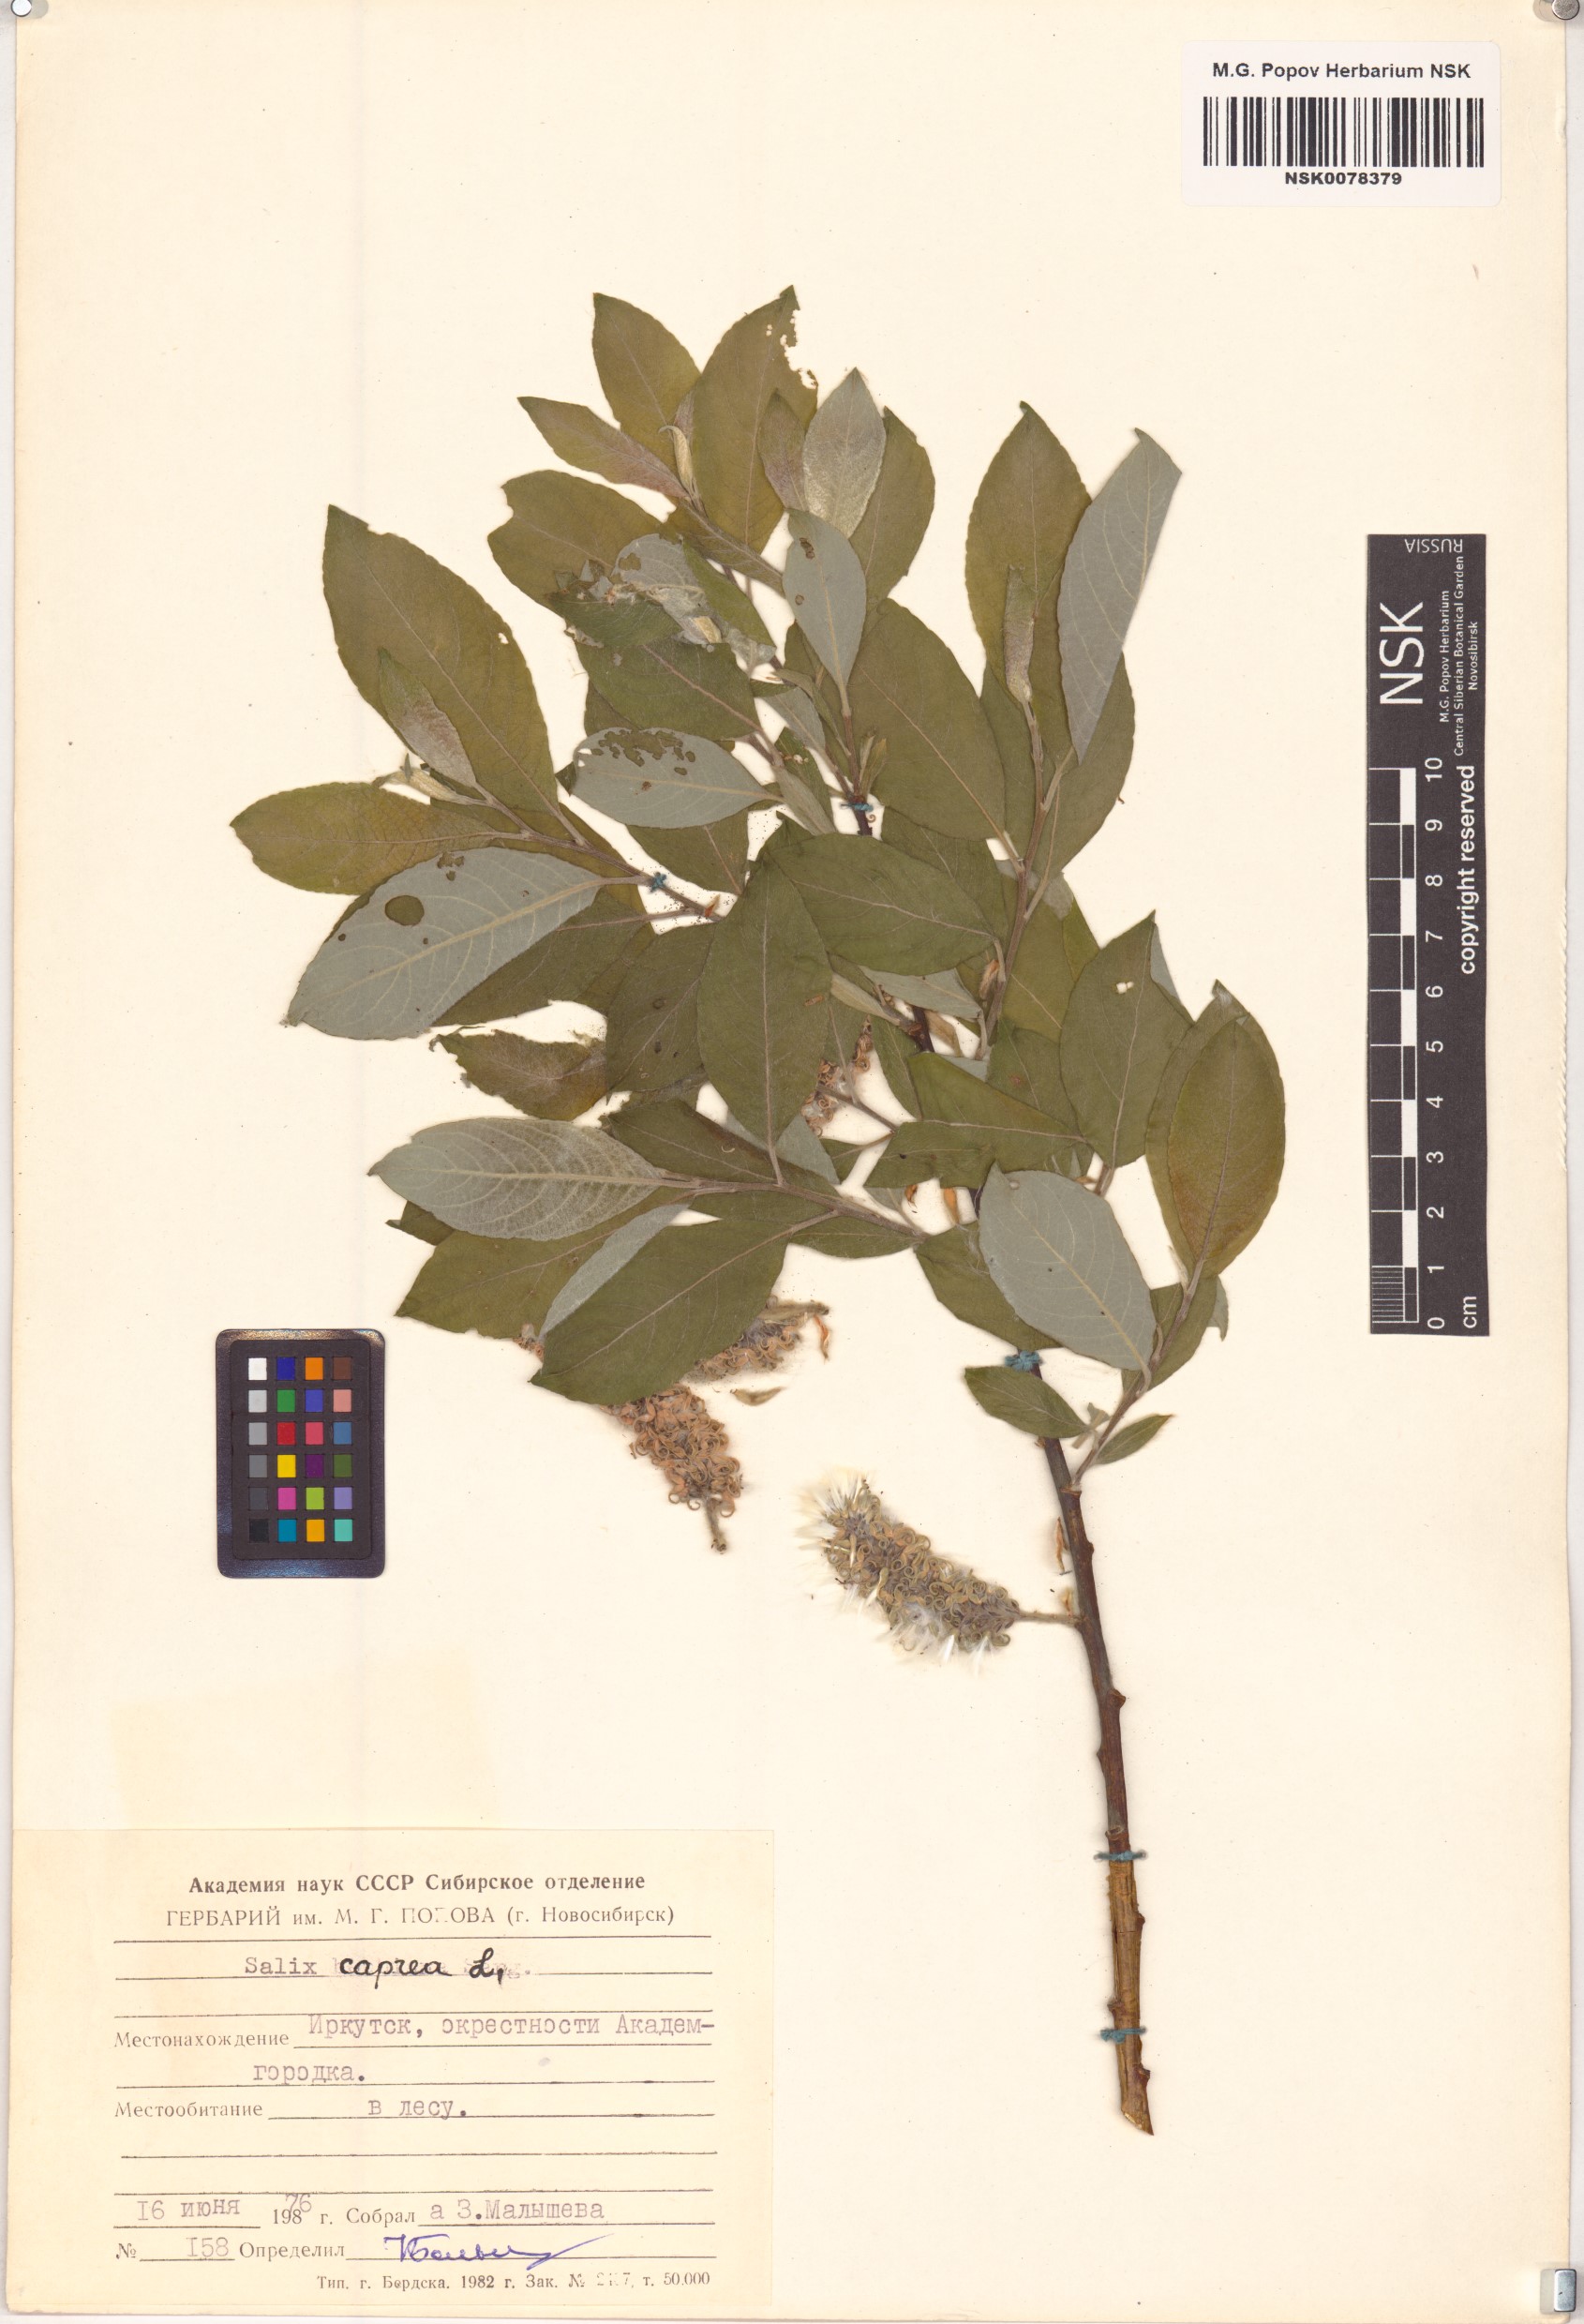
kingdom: Plantae
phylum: Tracheophyta
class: Magnoliopsida
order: Malpighiales
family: Salicaceae
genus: Salix
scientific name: Salix caprea
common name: Goat willow
